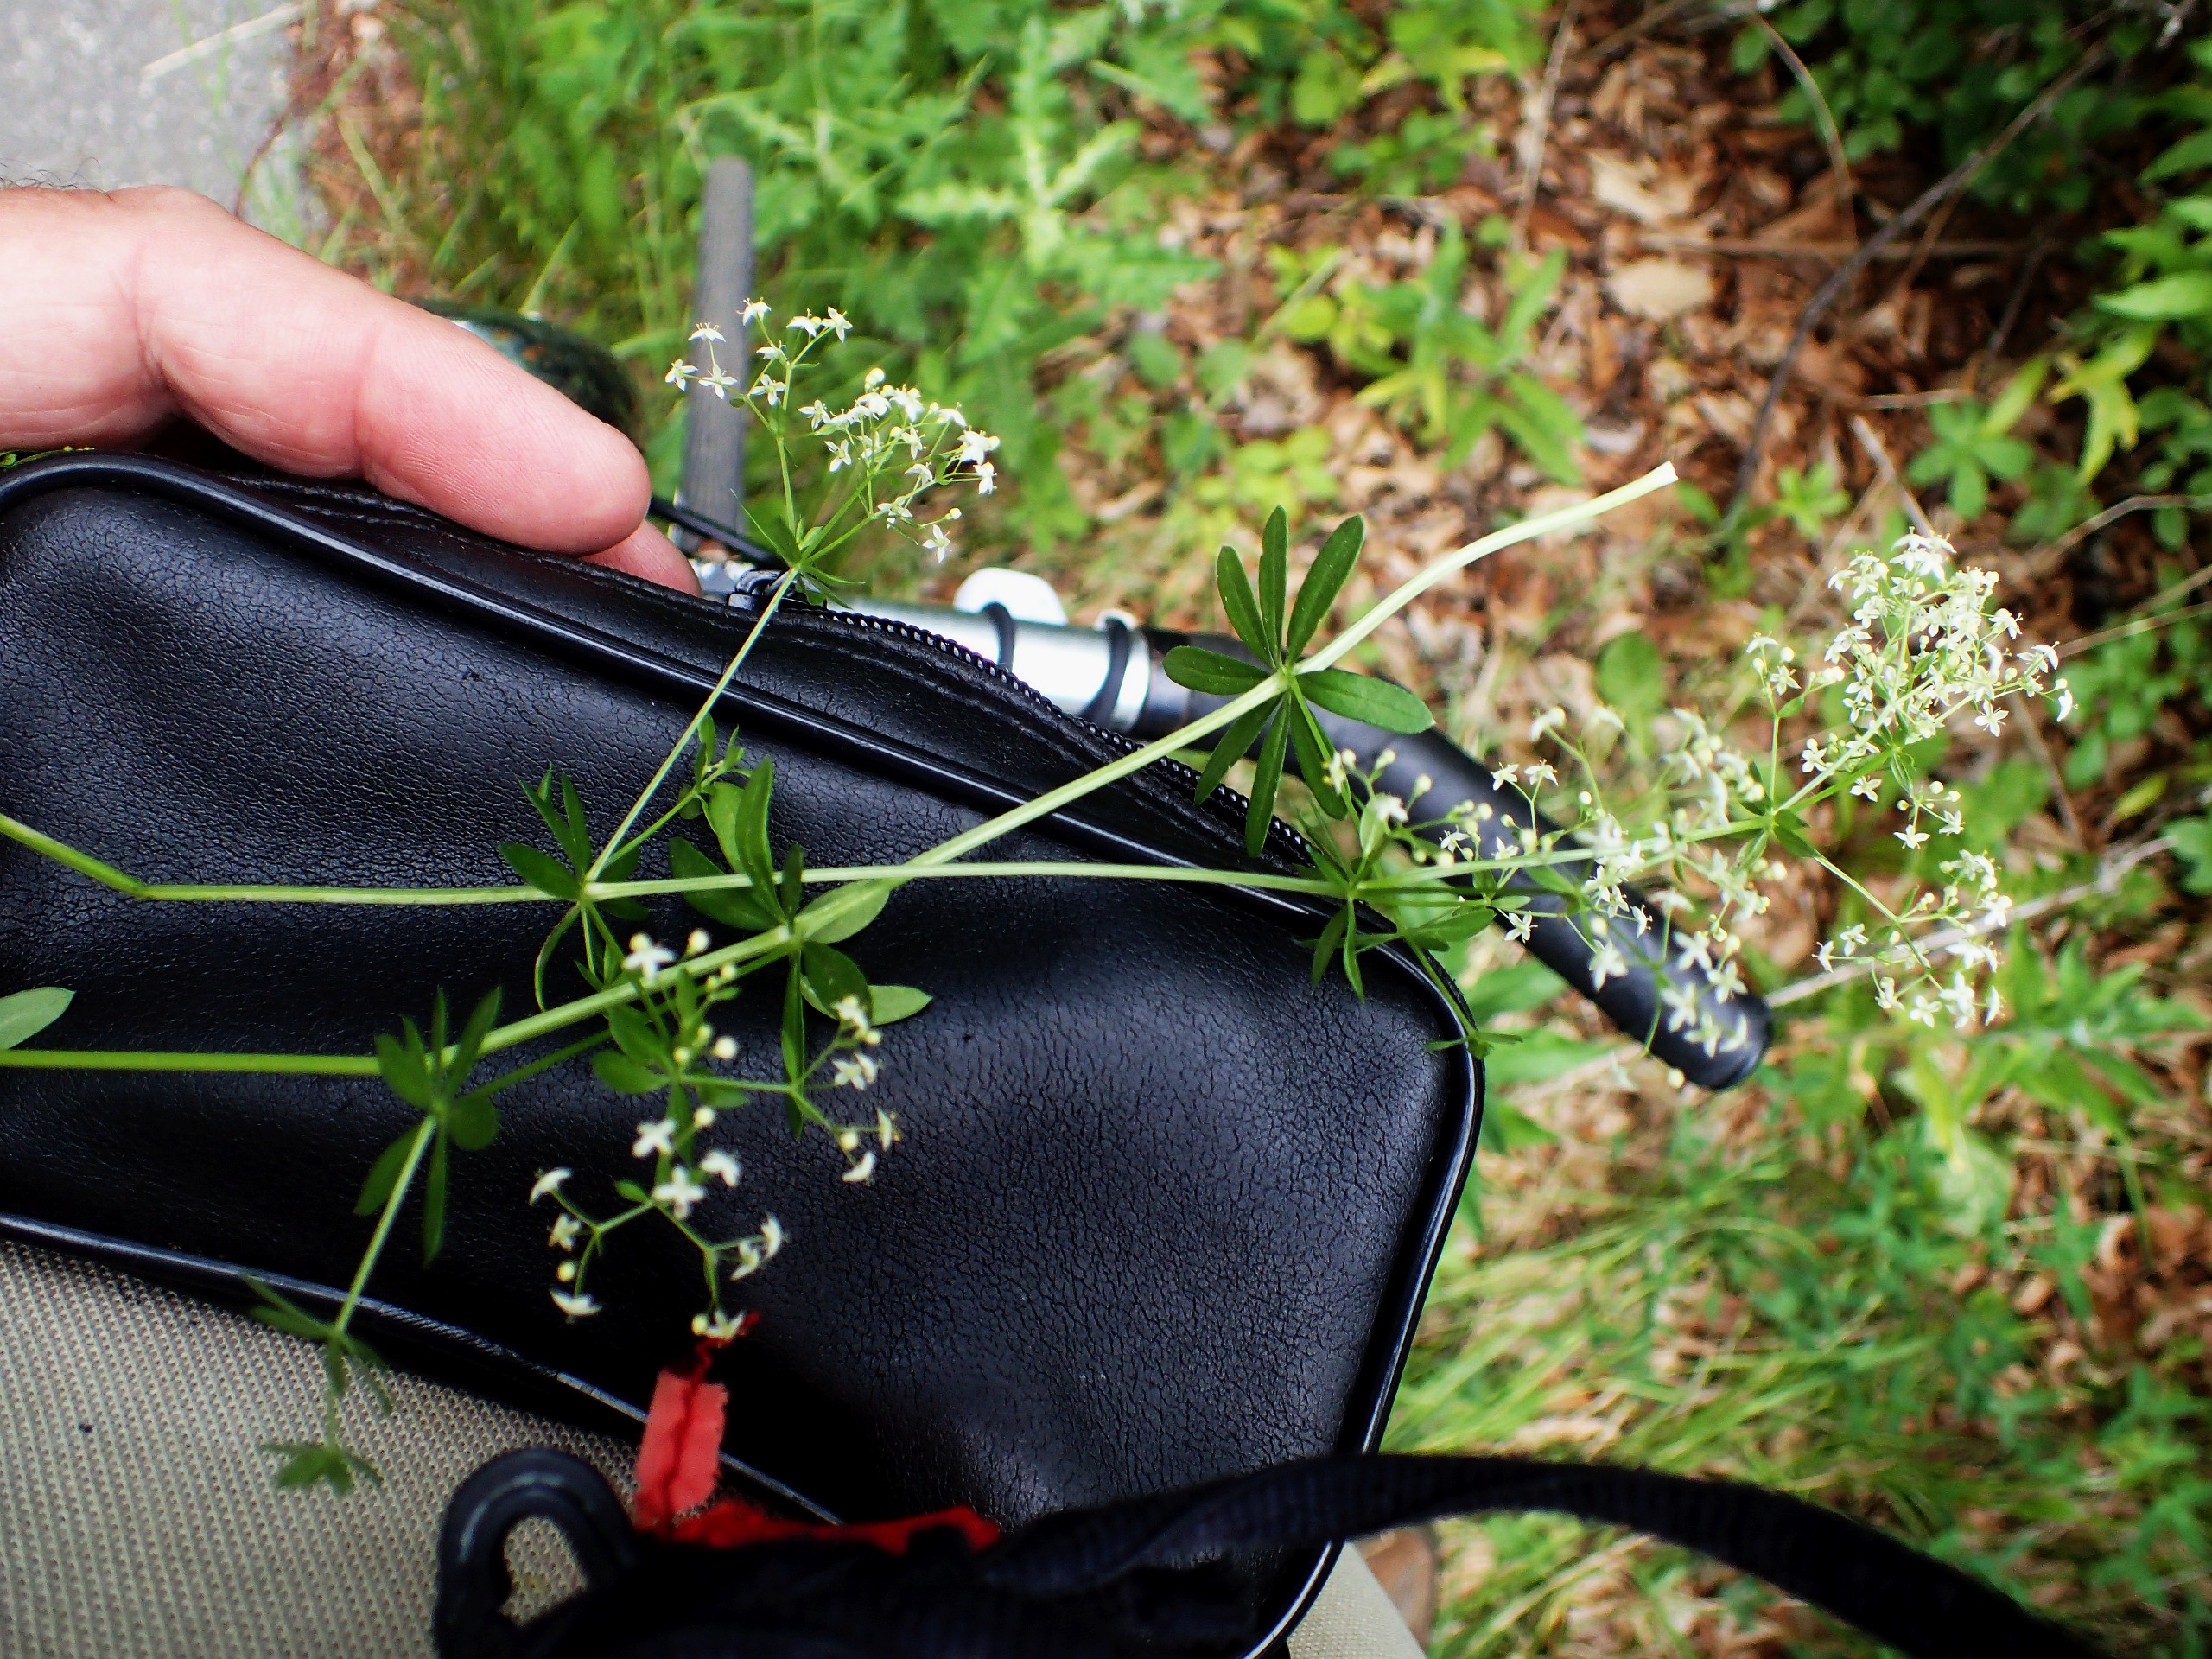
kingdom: Plantae
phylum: Tracheophyta
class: Magnoliopsida
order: Gentianales
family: Rubiaceae
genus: Galium
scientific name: Galium mollugo
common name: Hvid snerre
